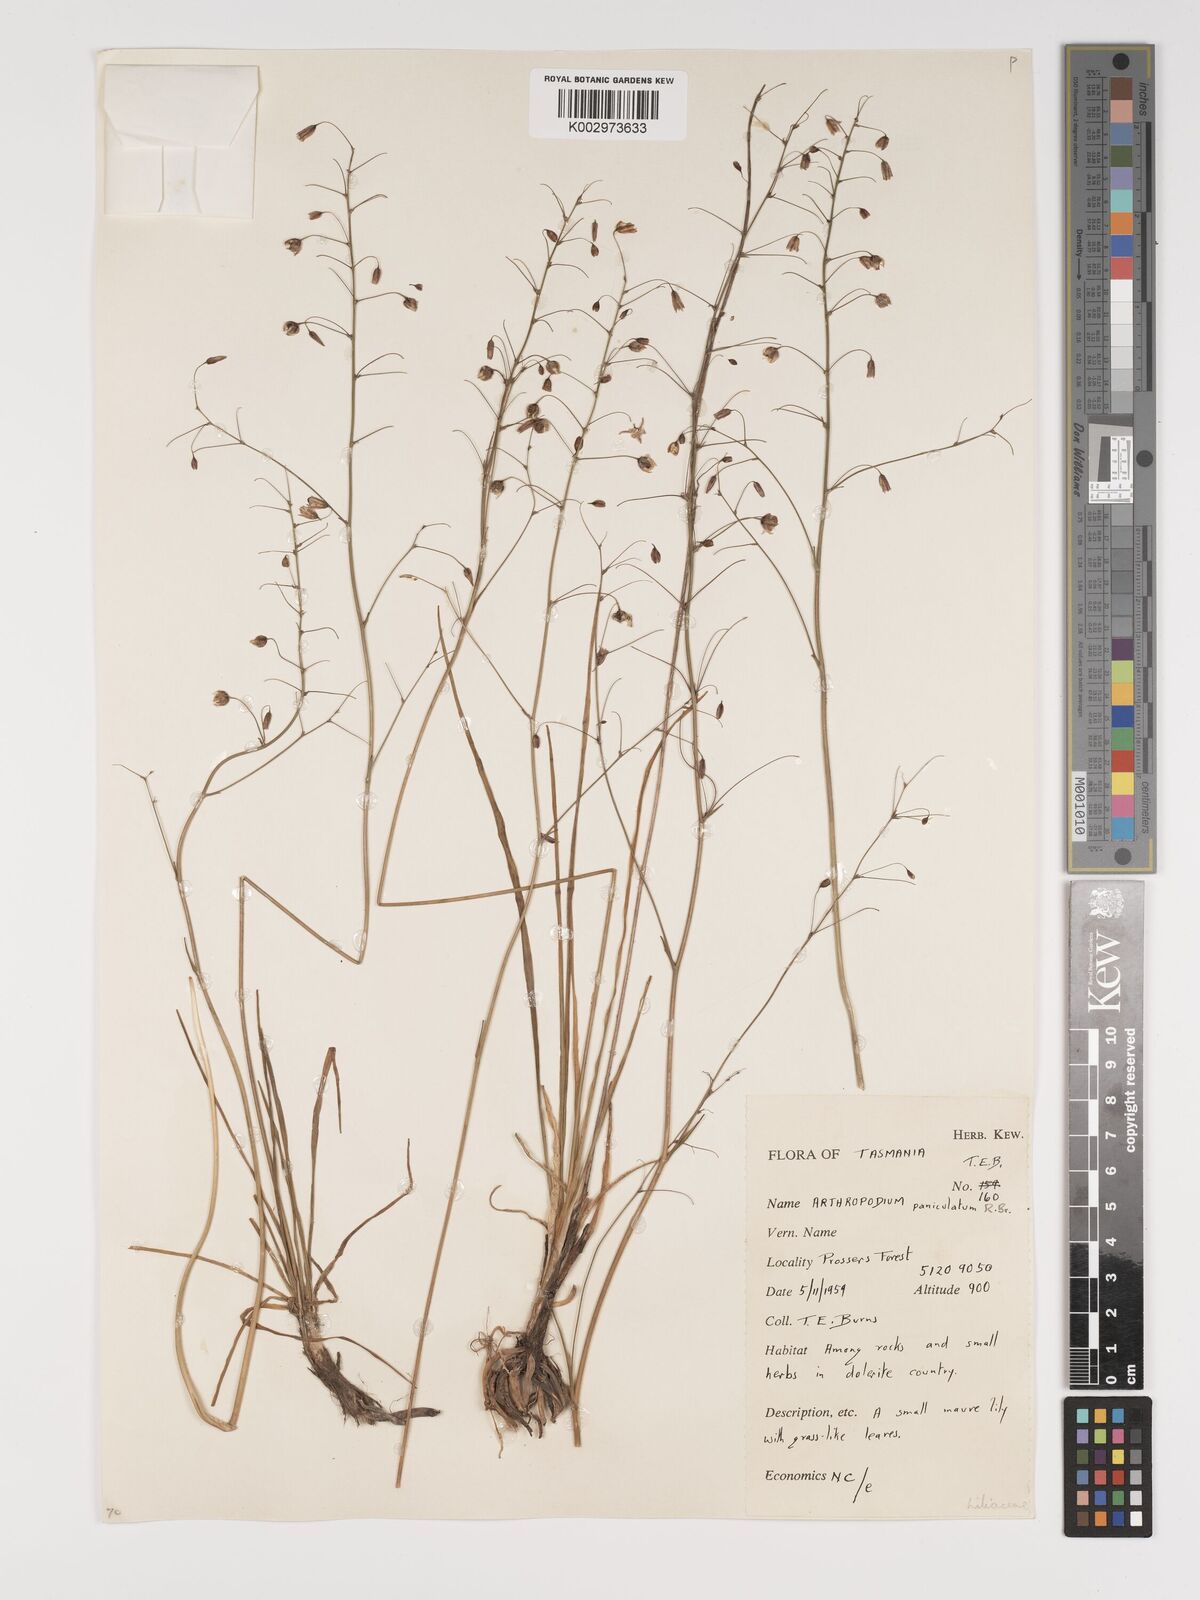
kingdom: Plantae
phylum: Tracheophyta
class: Liliopsida
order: Asparagales
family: Asparagaceae
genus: Arthropodium
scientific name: Arthropodium milleflorum
